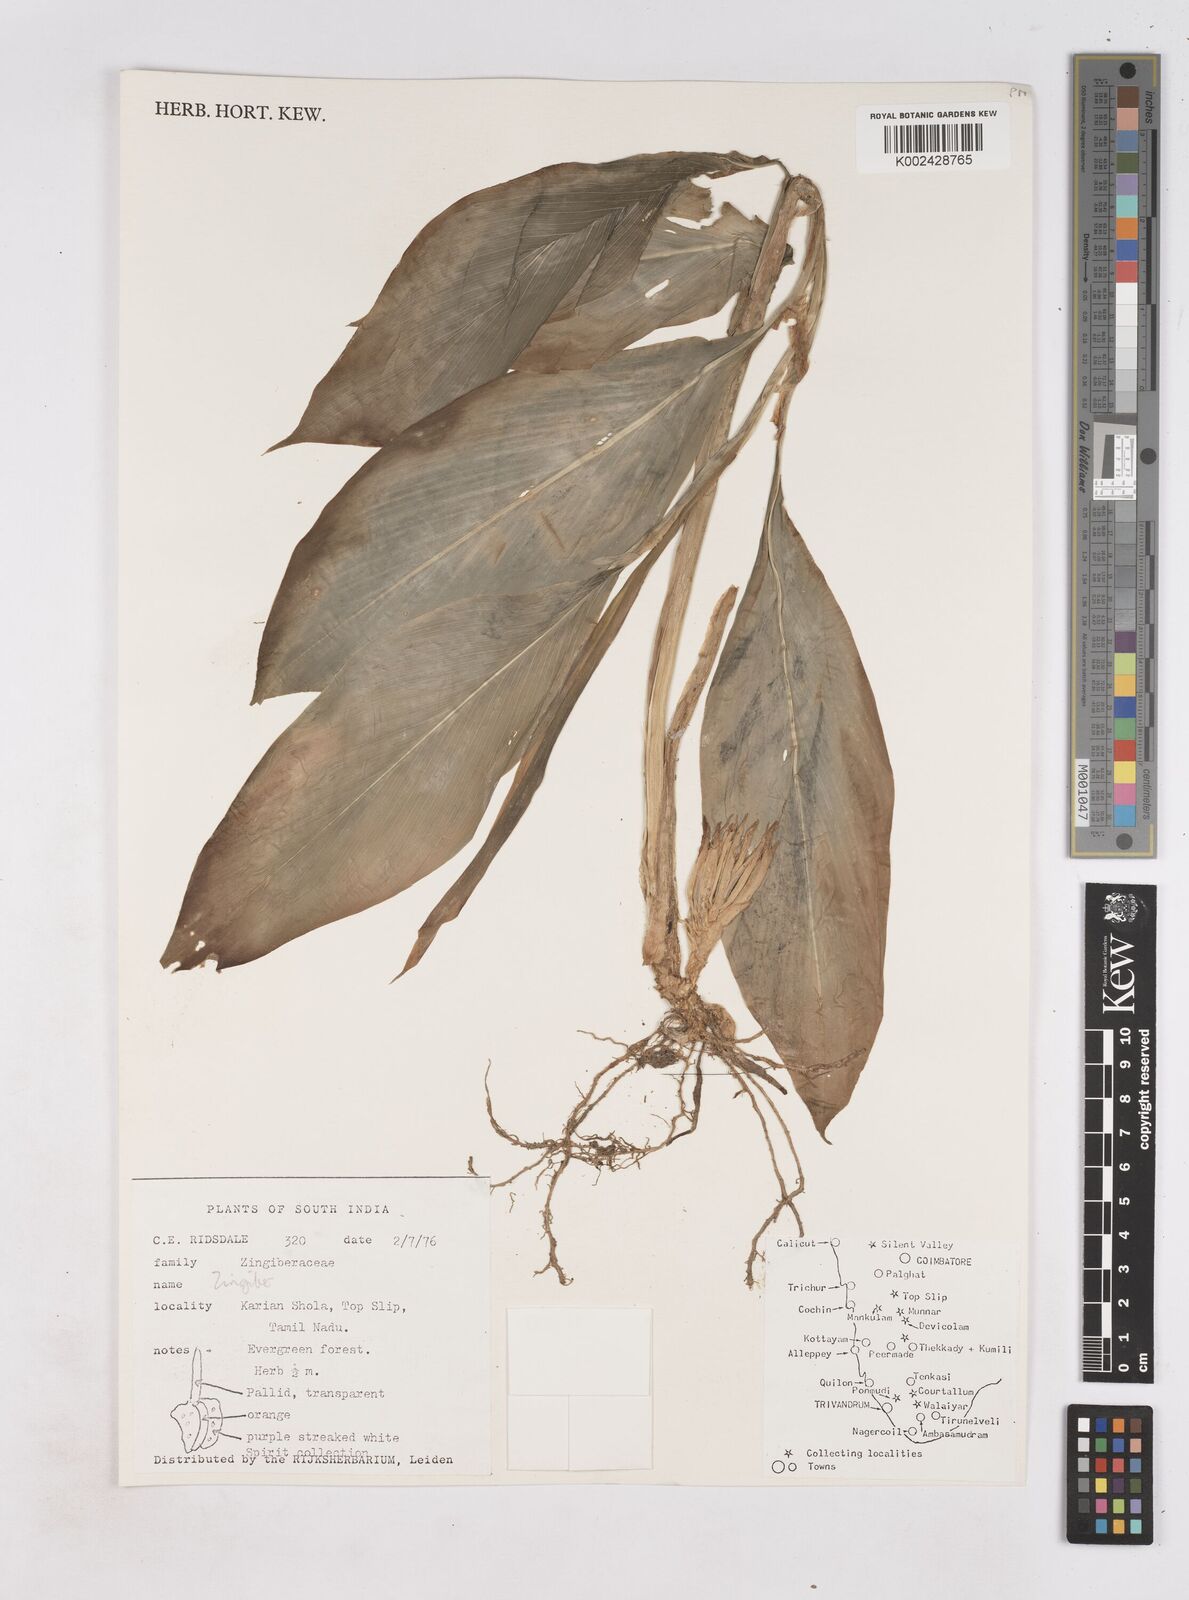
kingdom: Plantae
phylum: Tracheophyta
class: Liliopsida
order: Zingiberales
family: Zingiberaceae
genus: Zingiber
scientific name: Zingiber
